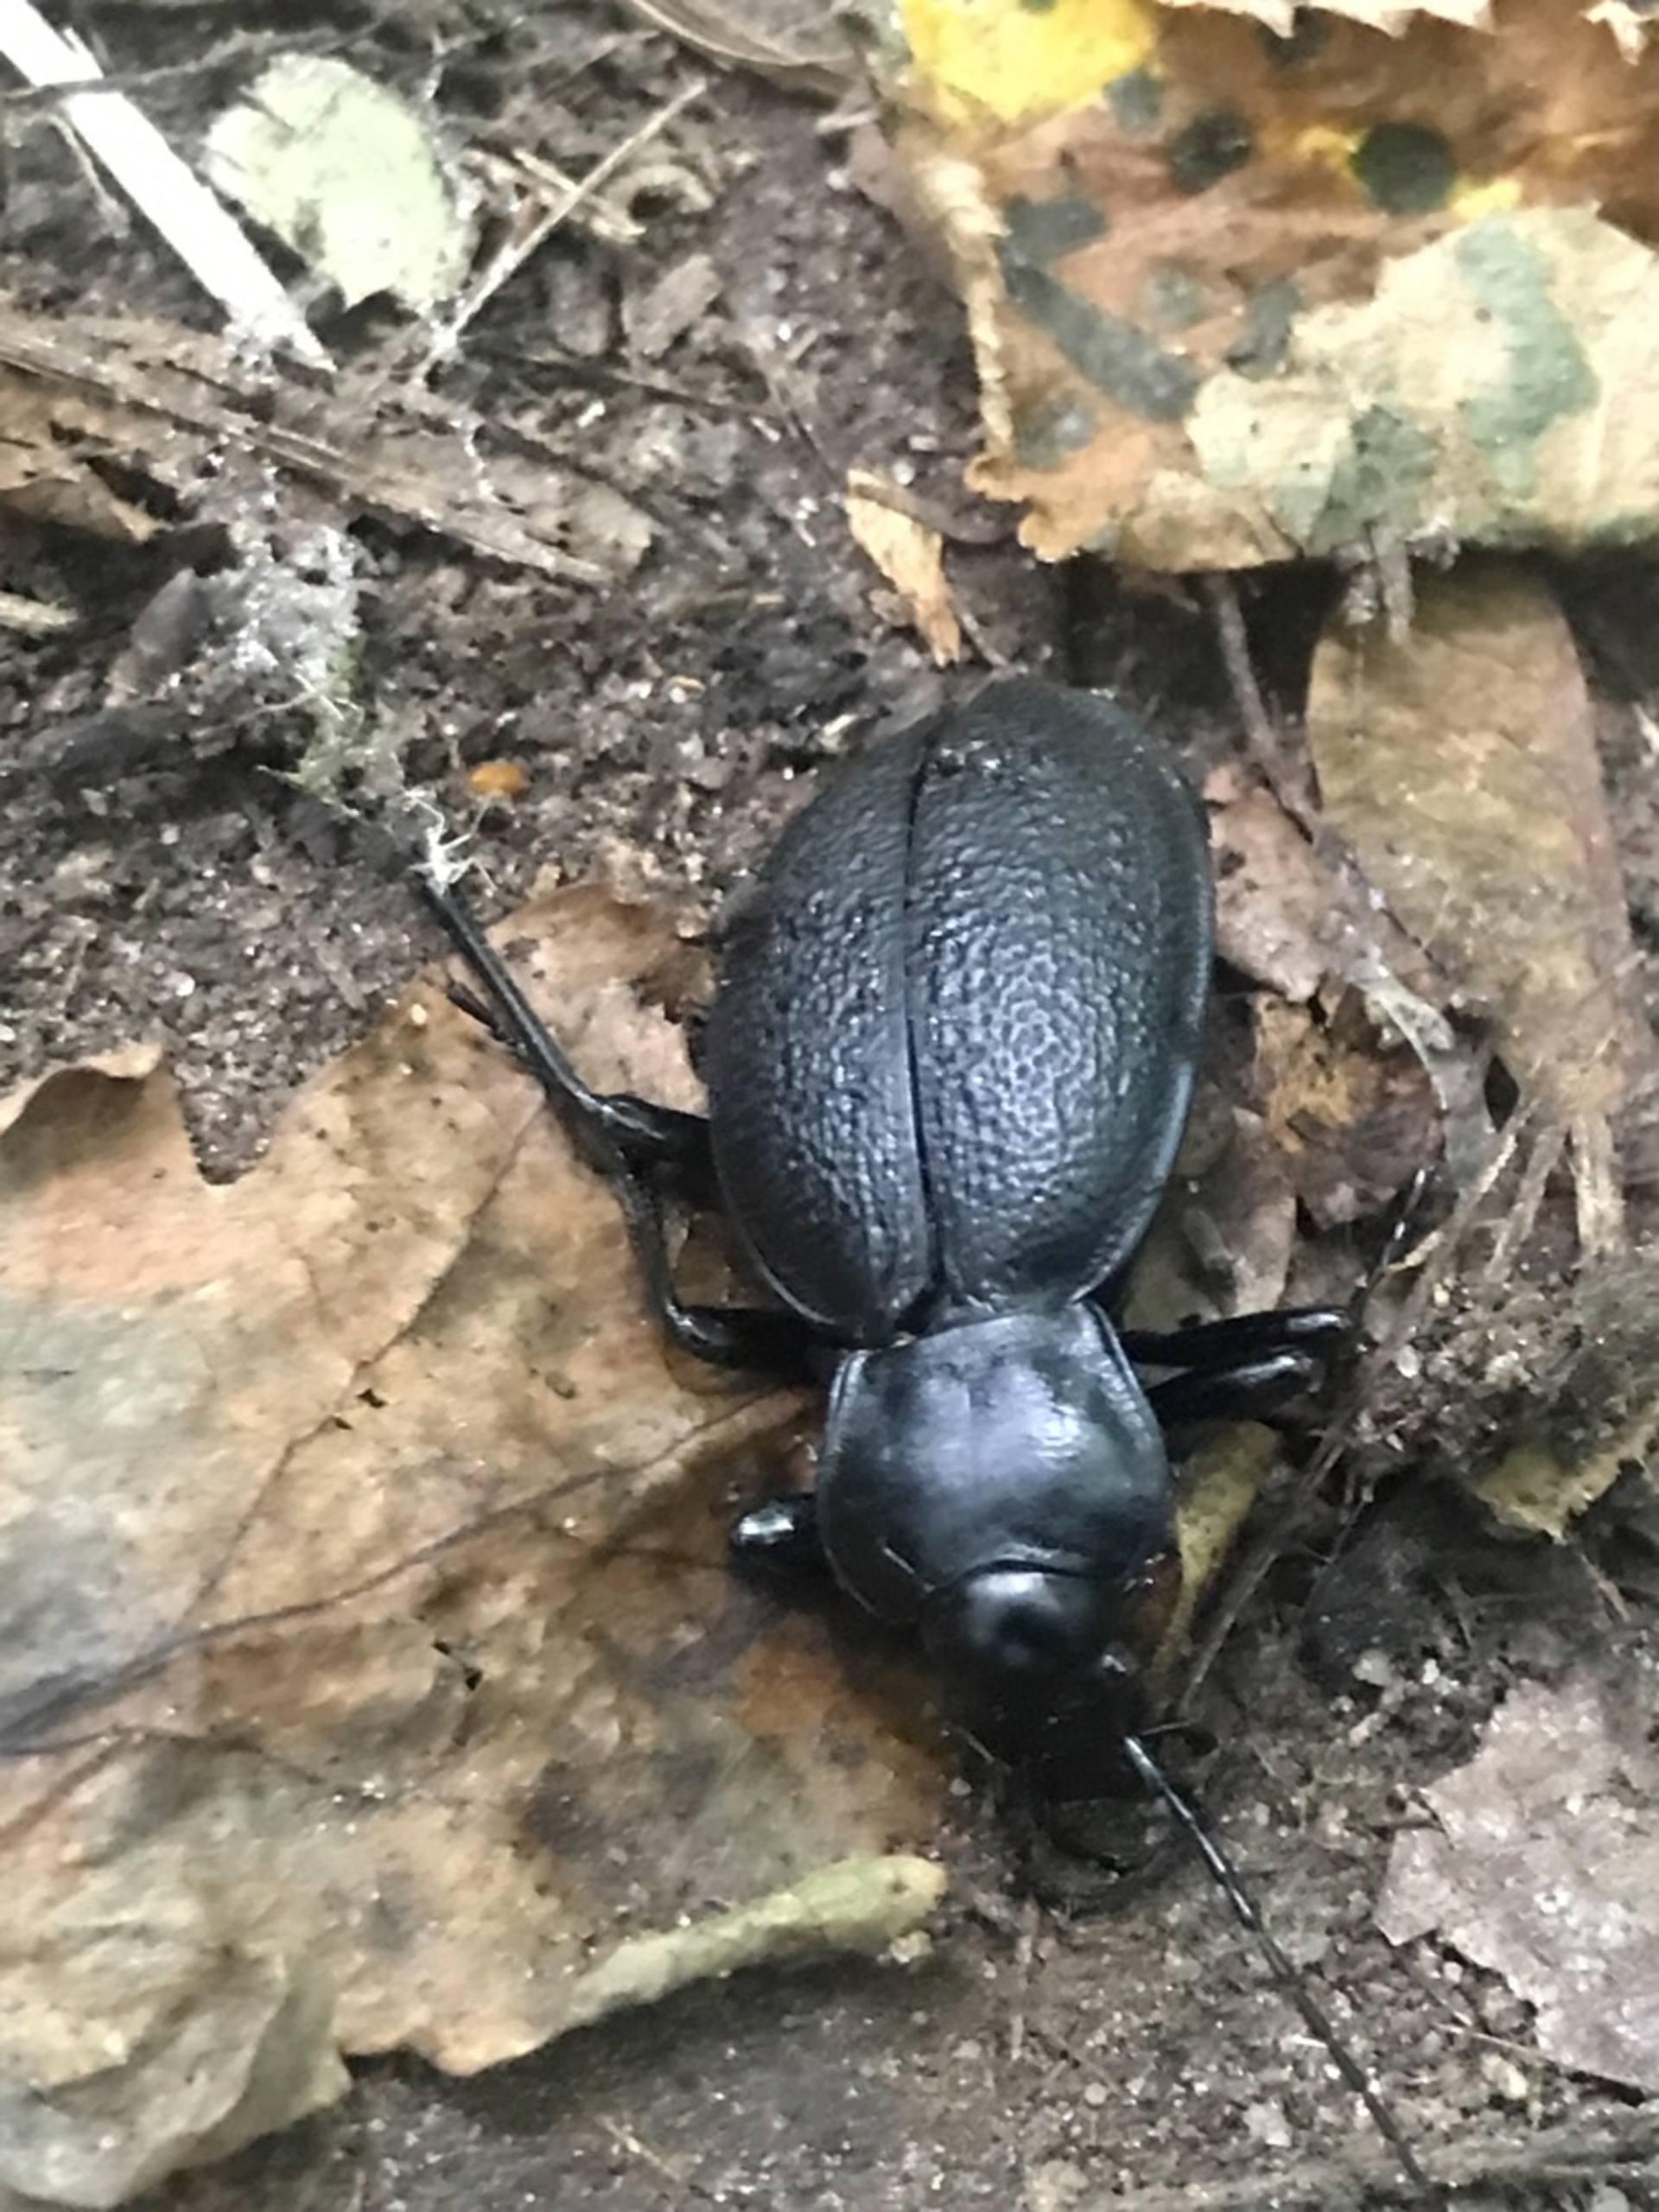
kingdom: Animalia
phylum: Arthropoda
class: Insecta
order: Coleoptera
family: Carabidae
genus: Carabus
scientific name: Carabus coriaceus
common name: Læderløber
